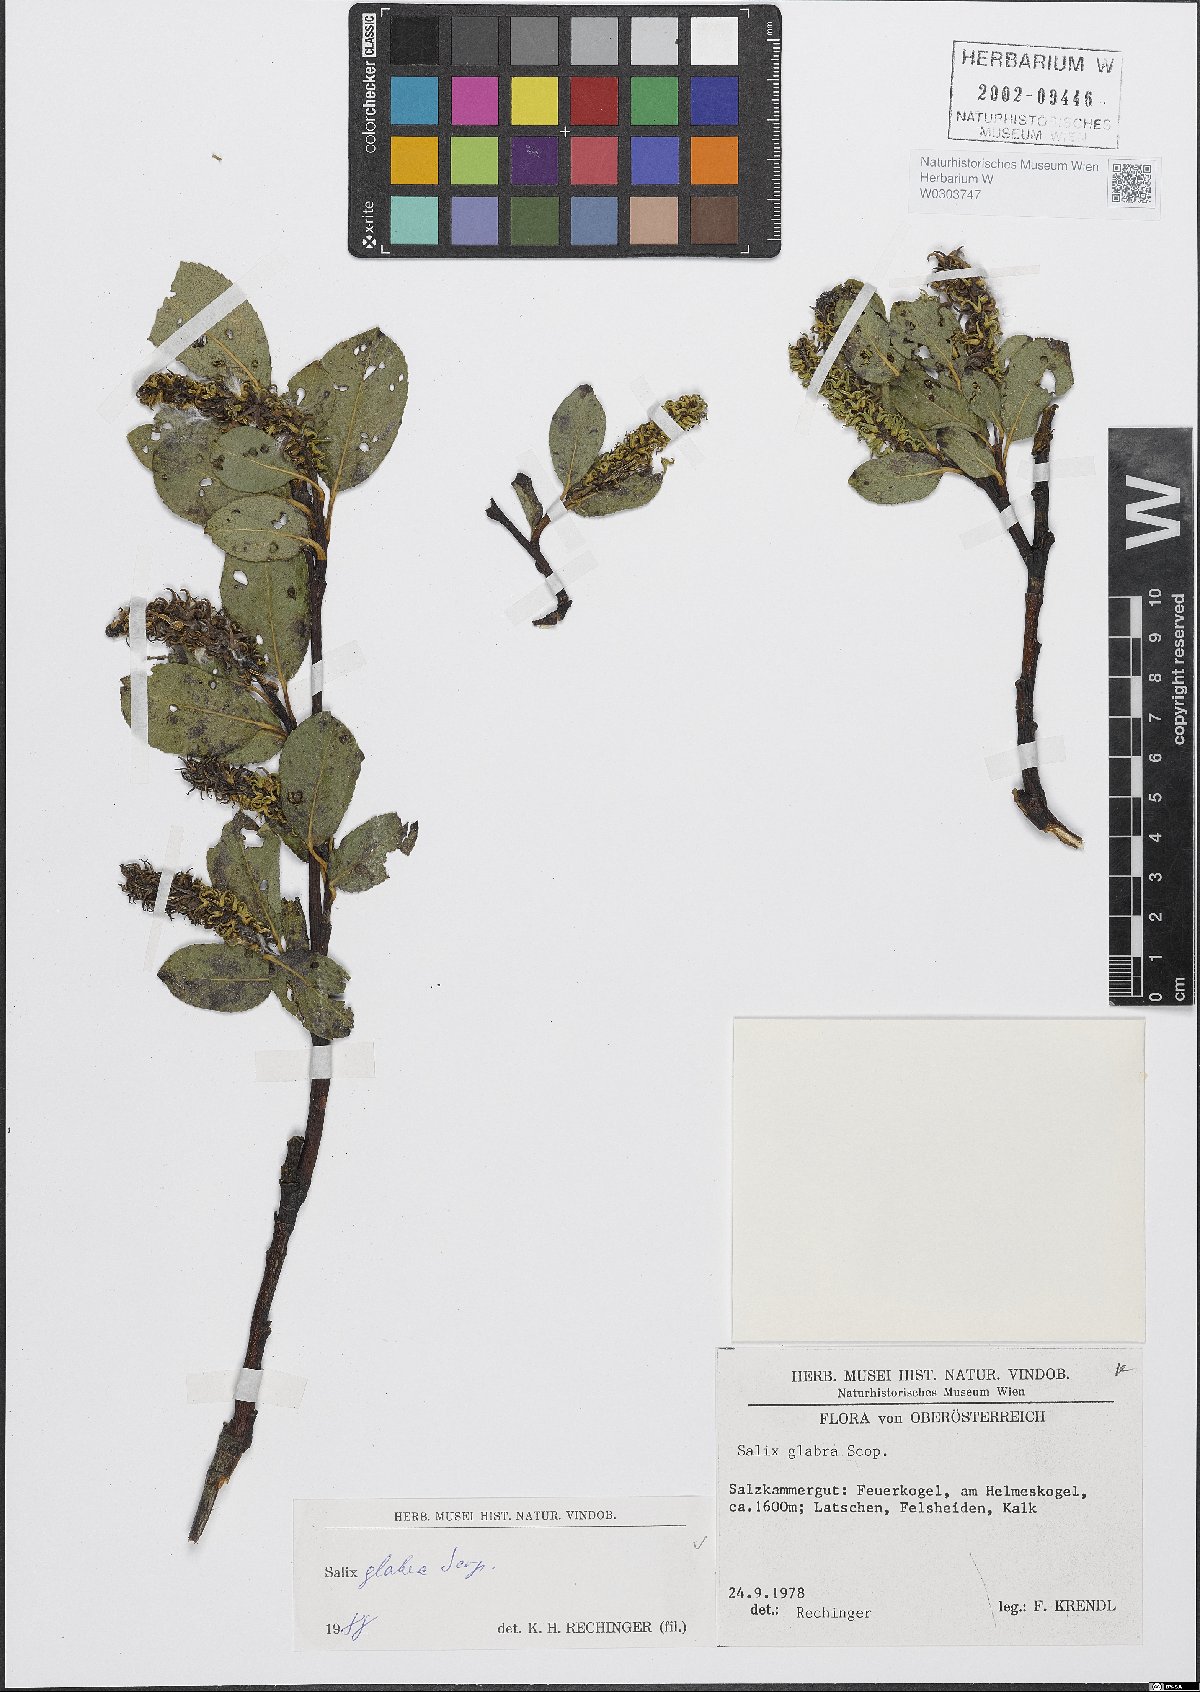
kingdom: Plantae
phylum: Tracheophyta
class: Magnoliopsida
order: Malpighiales
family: Salicaceae
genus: Salix
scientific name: Salix glabra
